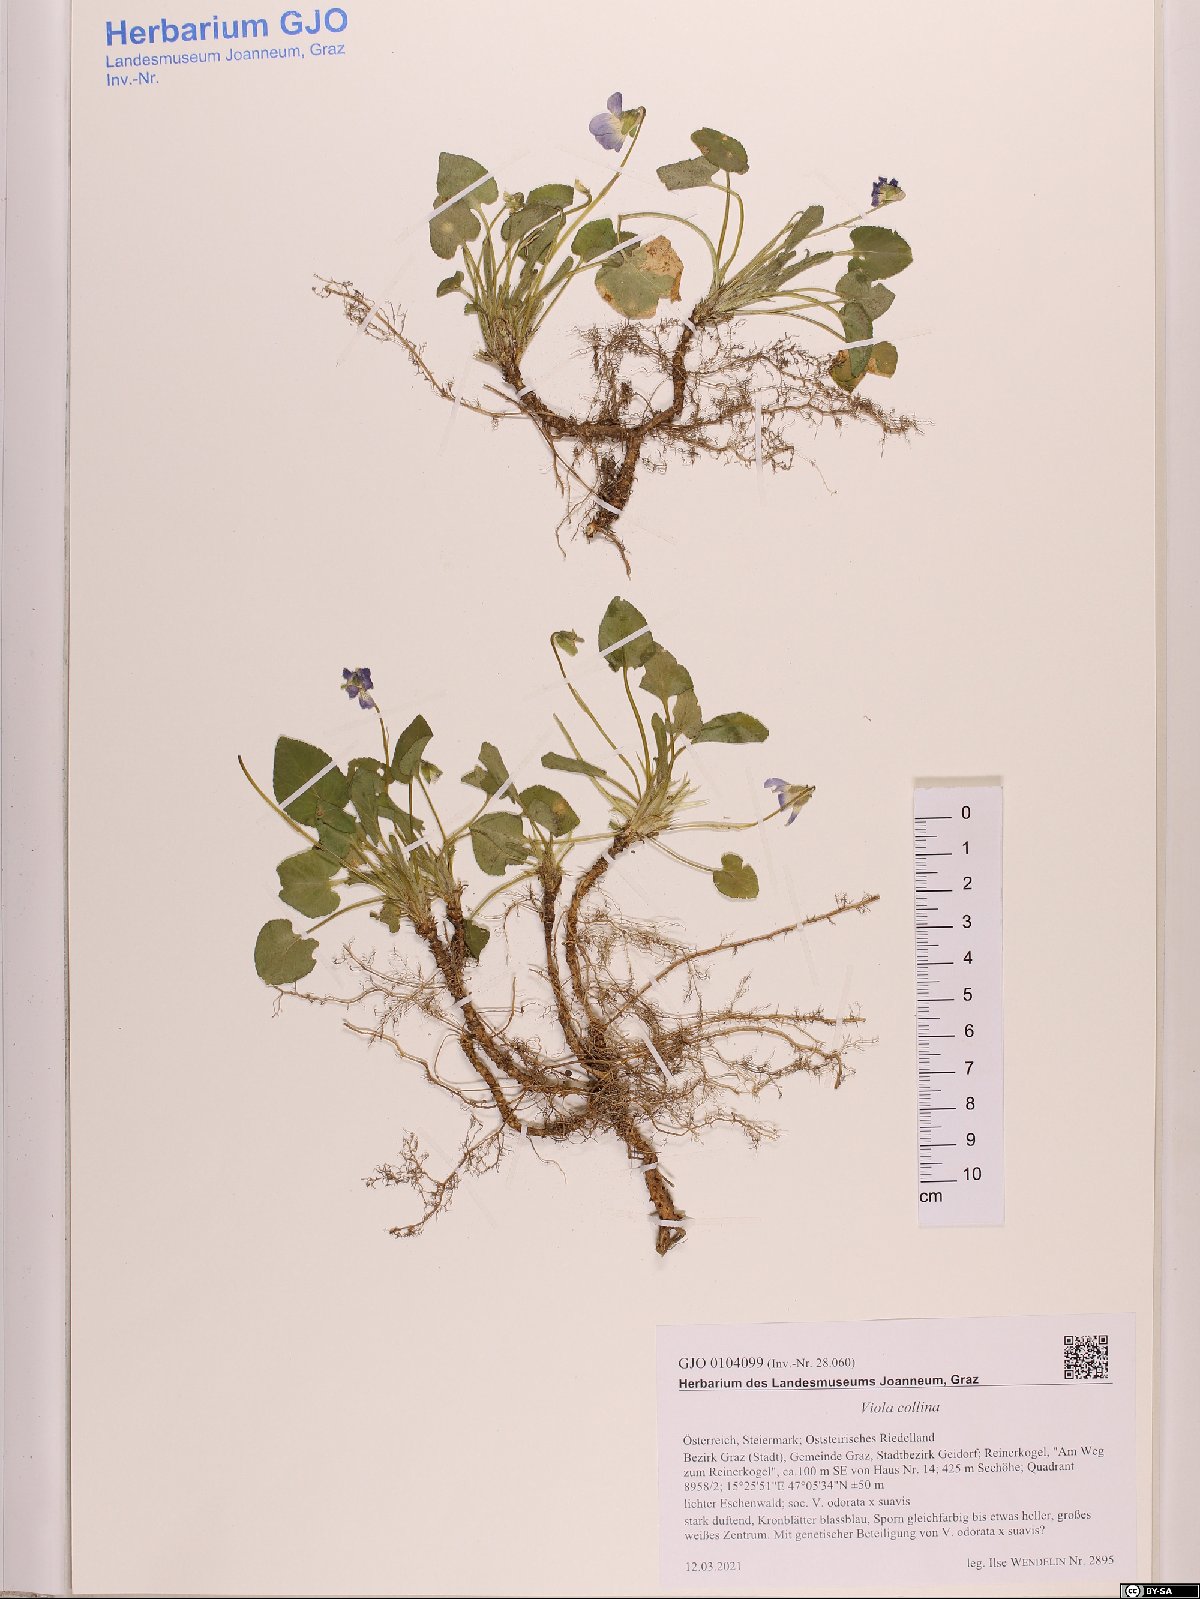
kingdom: Plantae
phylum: Tracheophyta
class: Magnoliopsida
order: Malpighiales
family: Violaceae
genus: Viola
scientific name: Viola collina
